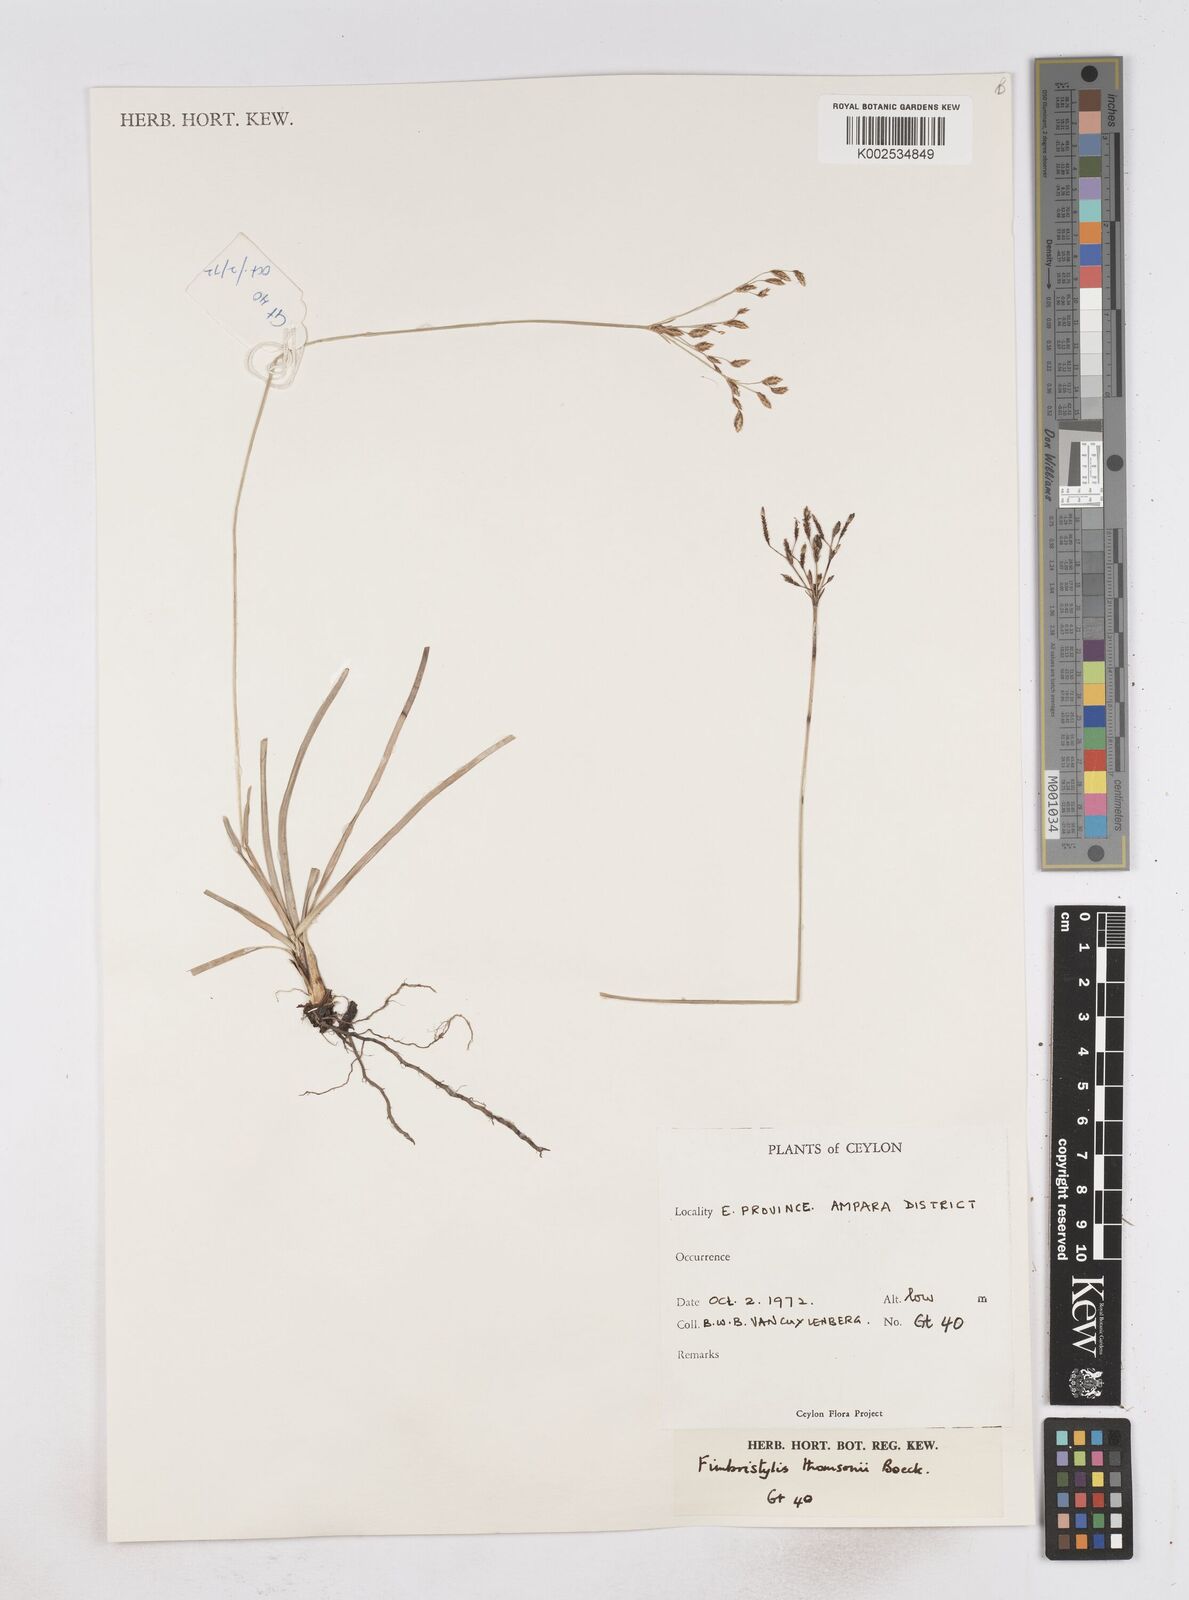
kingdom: Plantae
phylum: Tracheophyta
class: Liliopsida
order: Poales
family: Cyperaceae
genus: Fimbristylis
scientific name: Fimbristylis thomsonii
